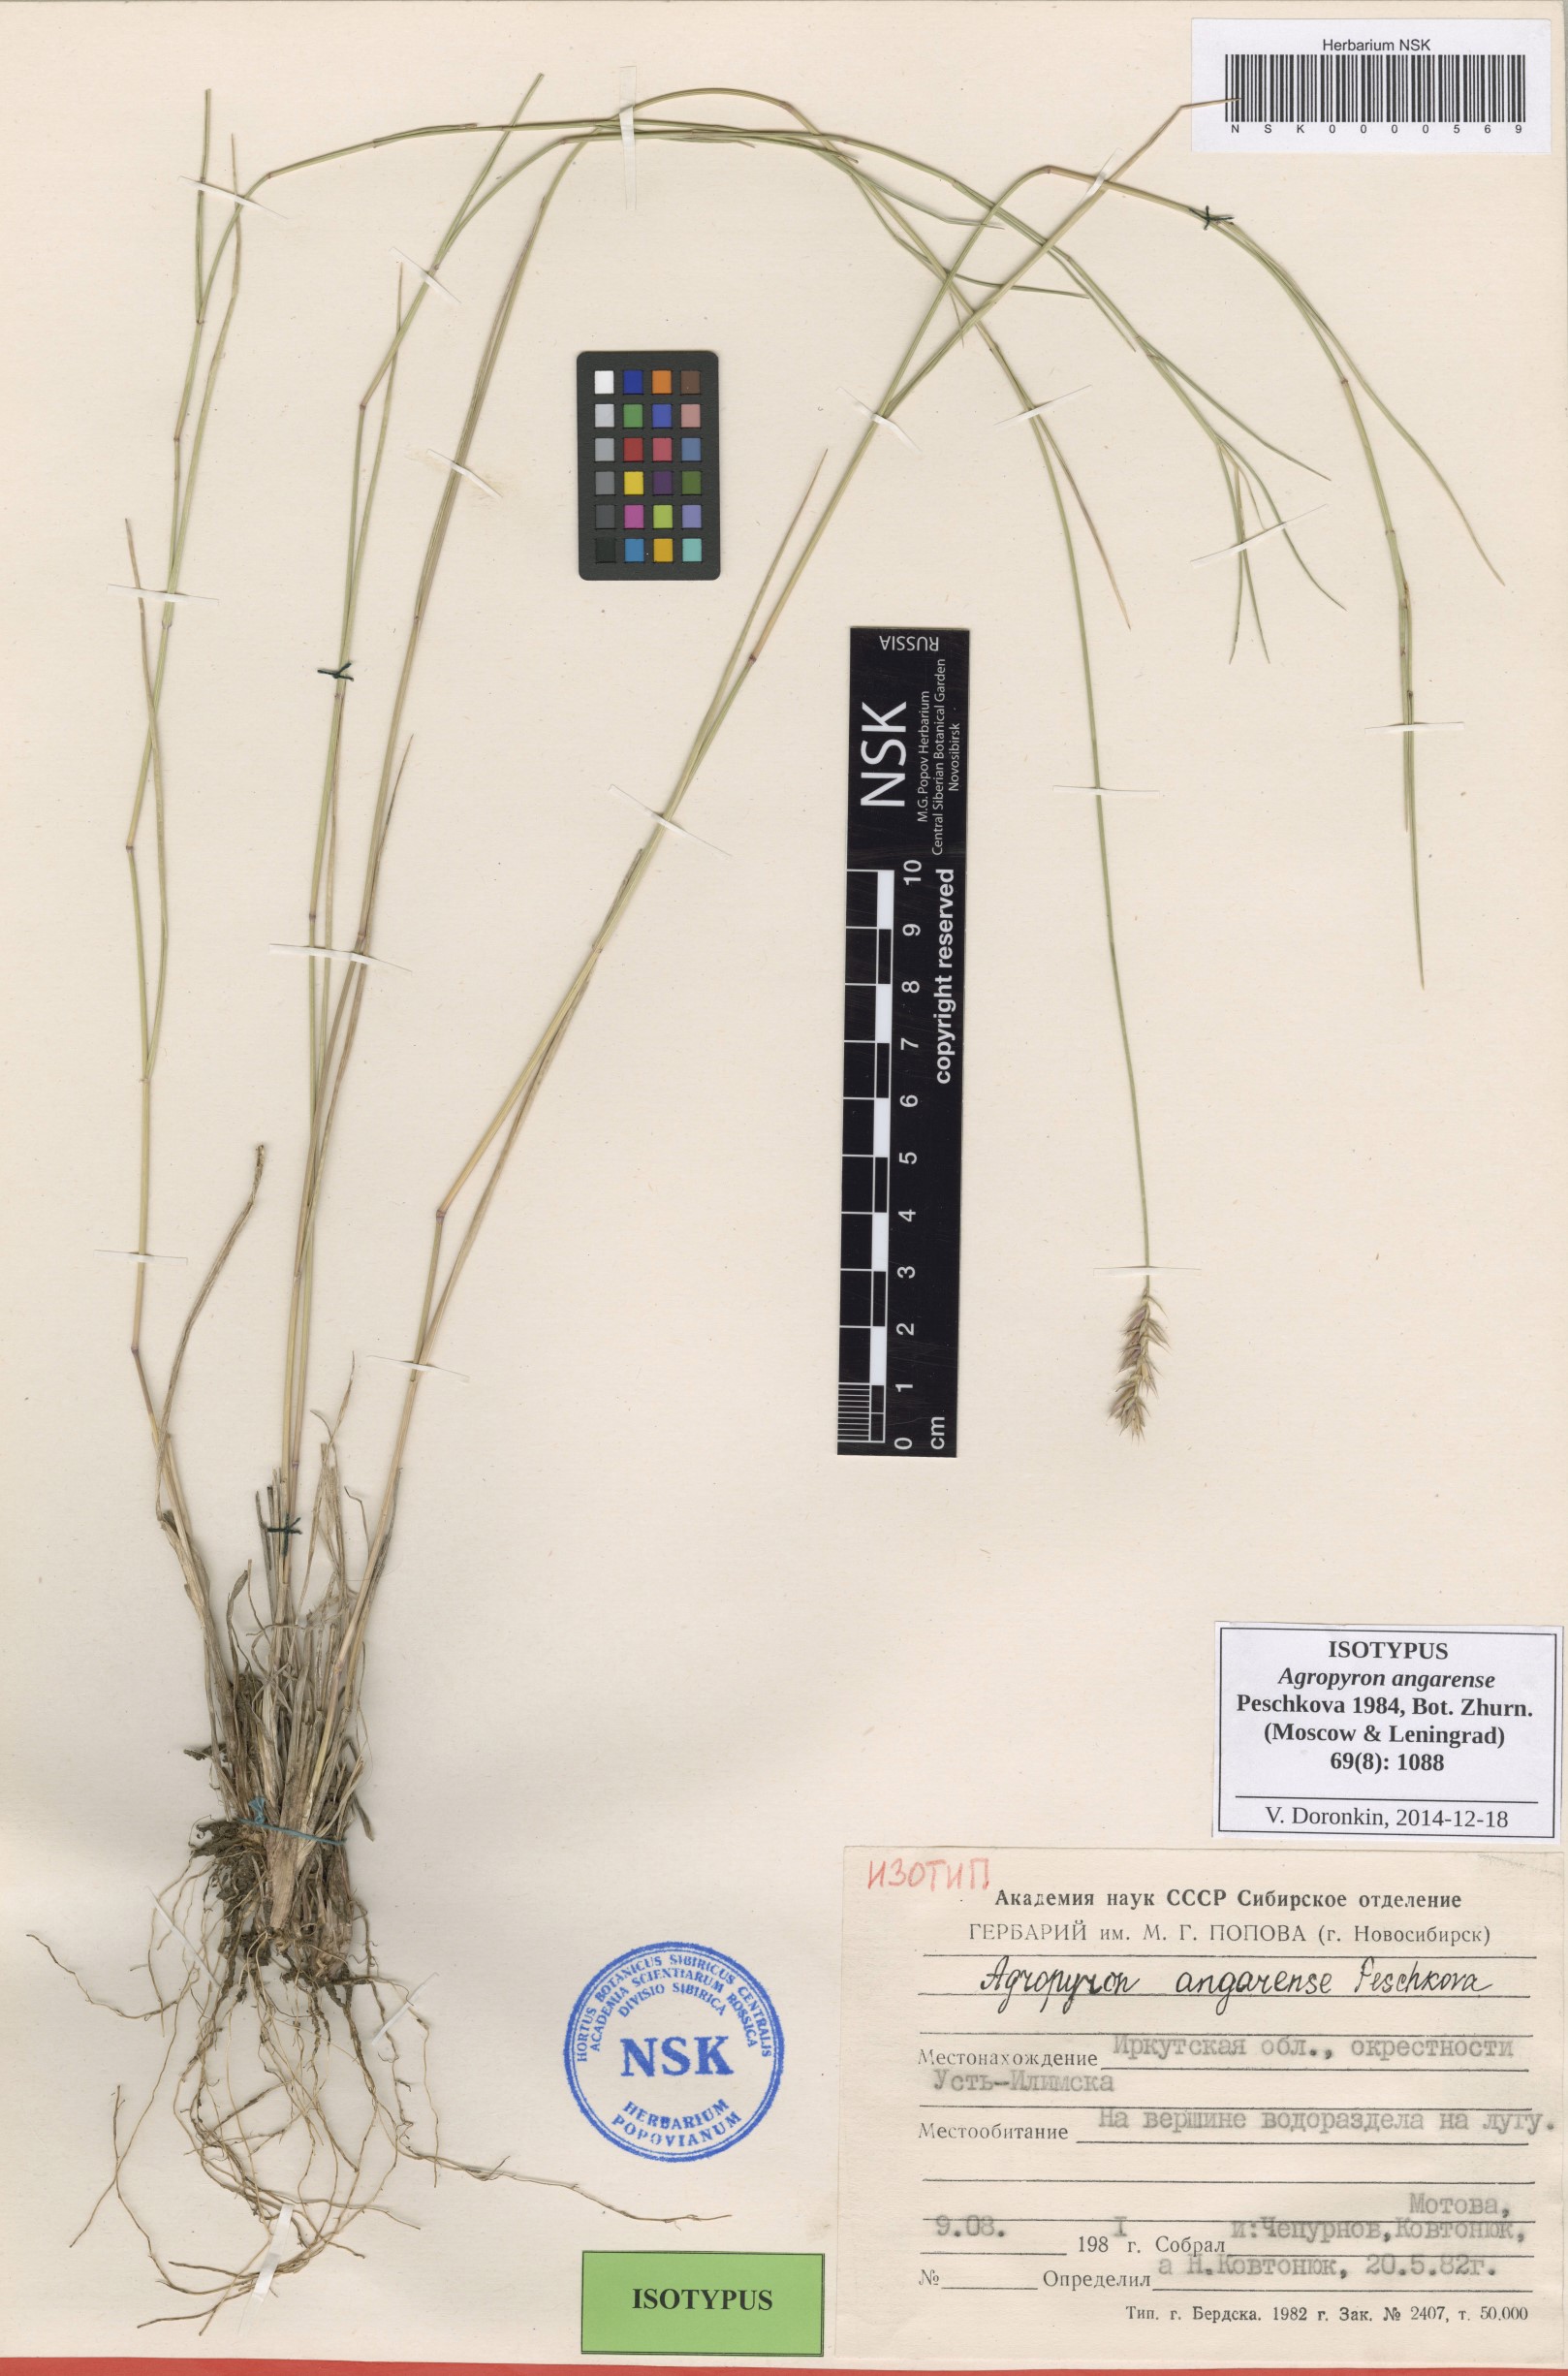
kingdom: Plantae
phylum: Tracheophyta
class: Liliopsida
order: Poales
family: Poaceae
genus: Agropyron
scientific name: Agropyron desertorum
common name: Desert wheatgrass
